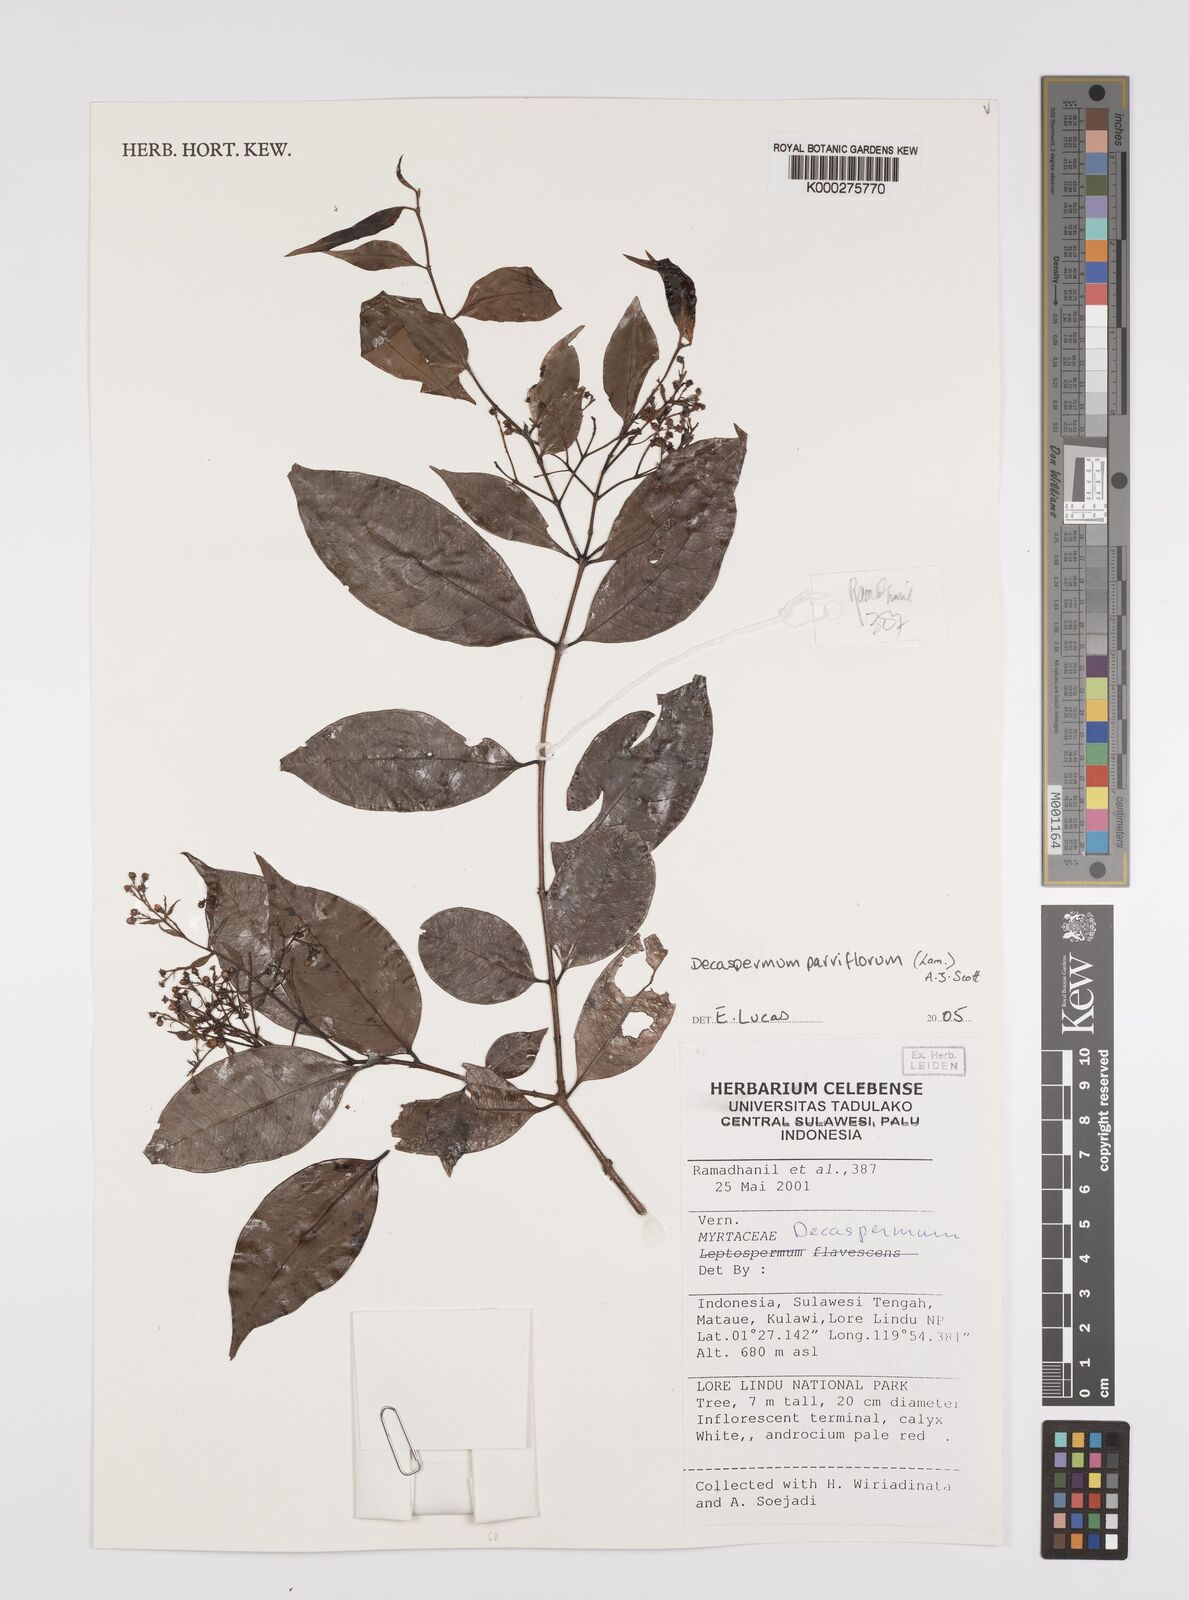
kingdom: Plantae
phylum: Tracheophyta
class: Magnoliopsida
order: Myrtales
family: Myrtaceae
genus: Decaspermum
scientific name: Decaspermum parviflorum
